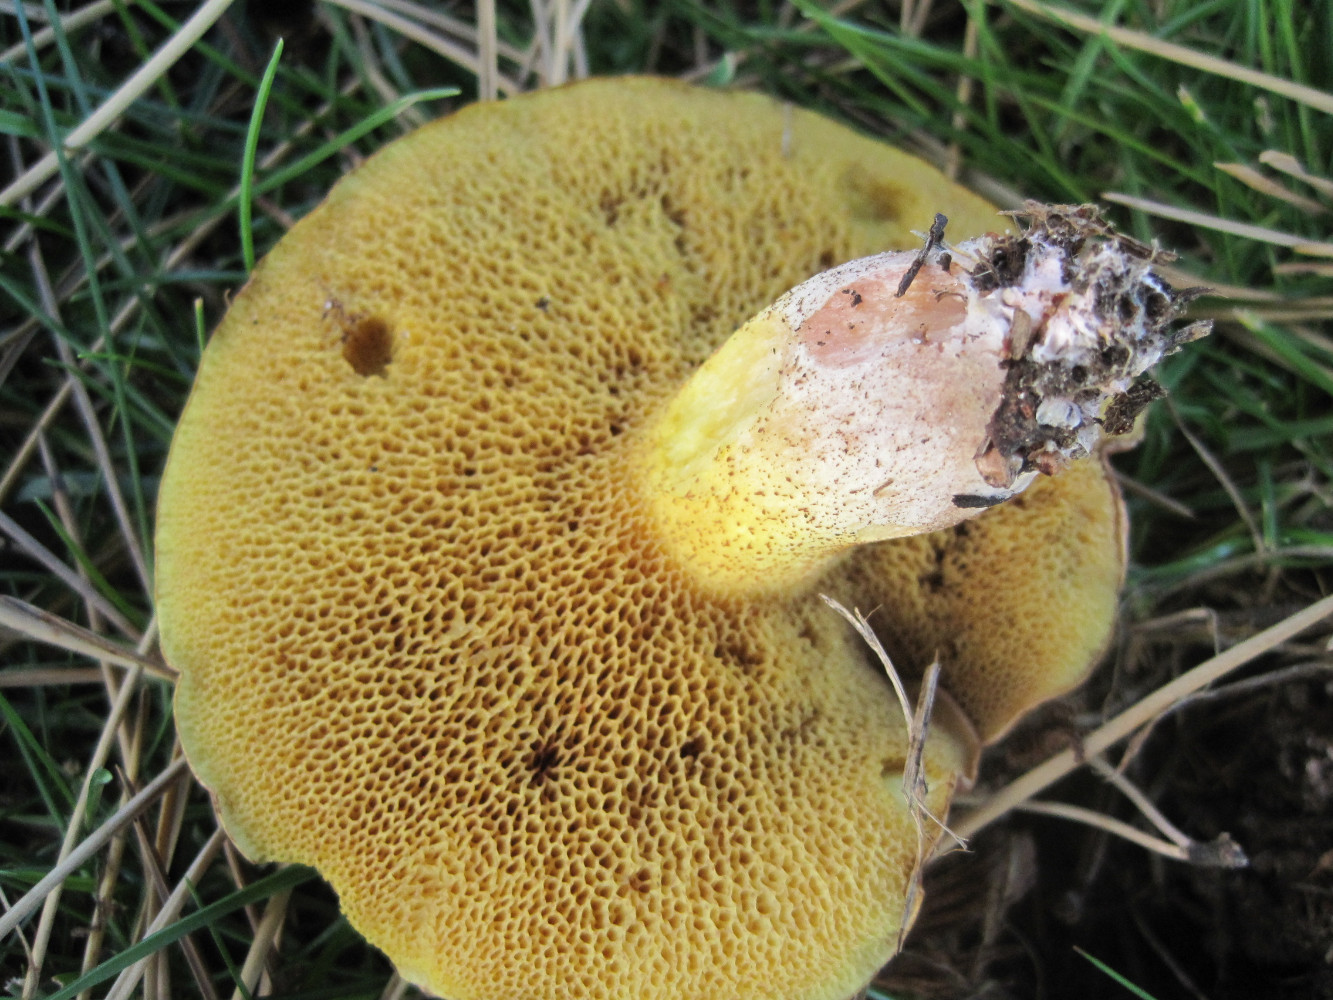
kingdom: Fungi
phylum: Basidiomycota
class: Agaricomycetes
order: Boletales
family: Suillaceae
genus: Suillus
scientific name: Suillus collinitus
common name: rosafodet slimrørhat
